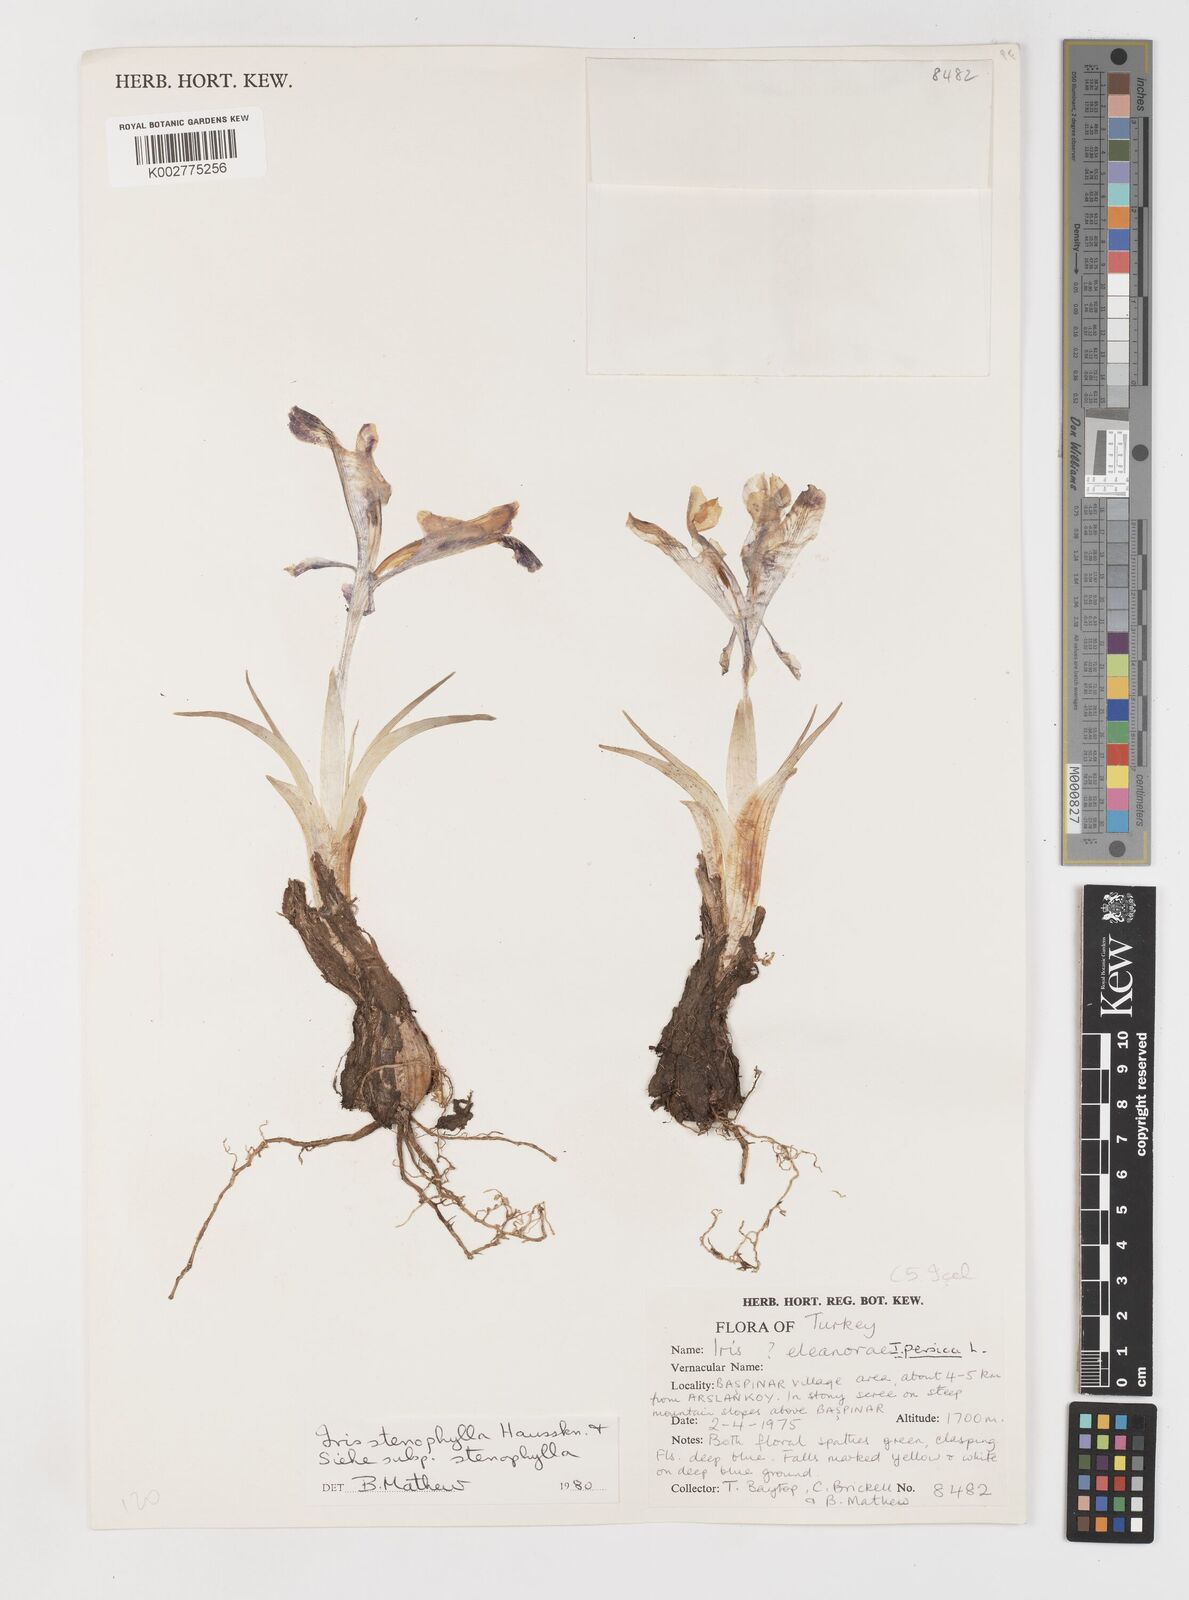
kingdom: Plantae
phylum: Tracheophyta
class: Liliopsida
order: Asparagales
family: Iridaceae
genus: Iris
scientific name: Iris stenophylla
